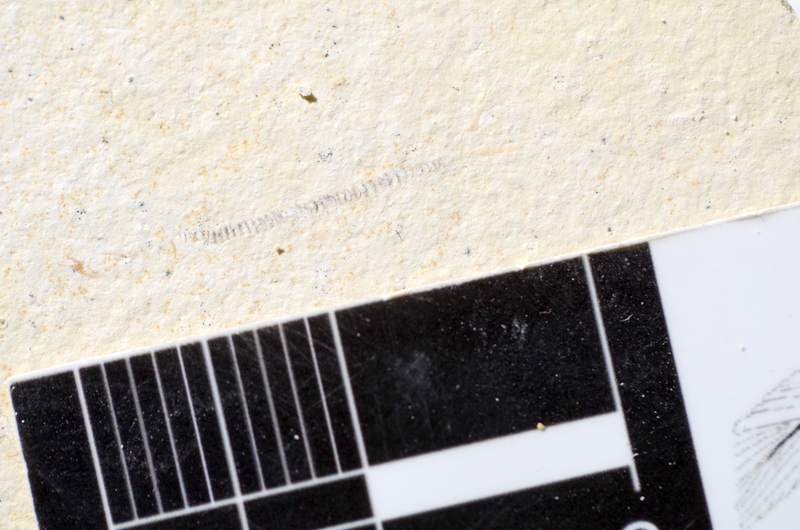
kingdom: Animalia
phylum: Chordata
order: Salmoniformes
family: Orthogonikleithridae
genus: Orthogonikleithrus
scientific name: Orthogonikleithrus hoelli
